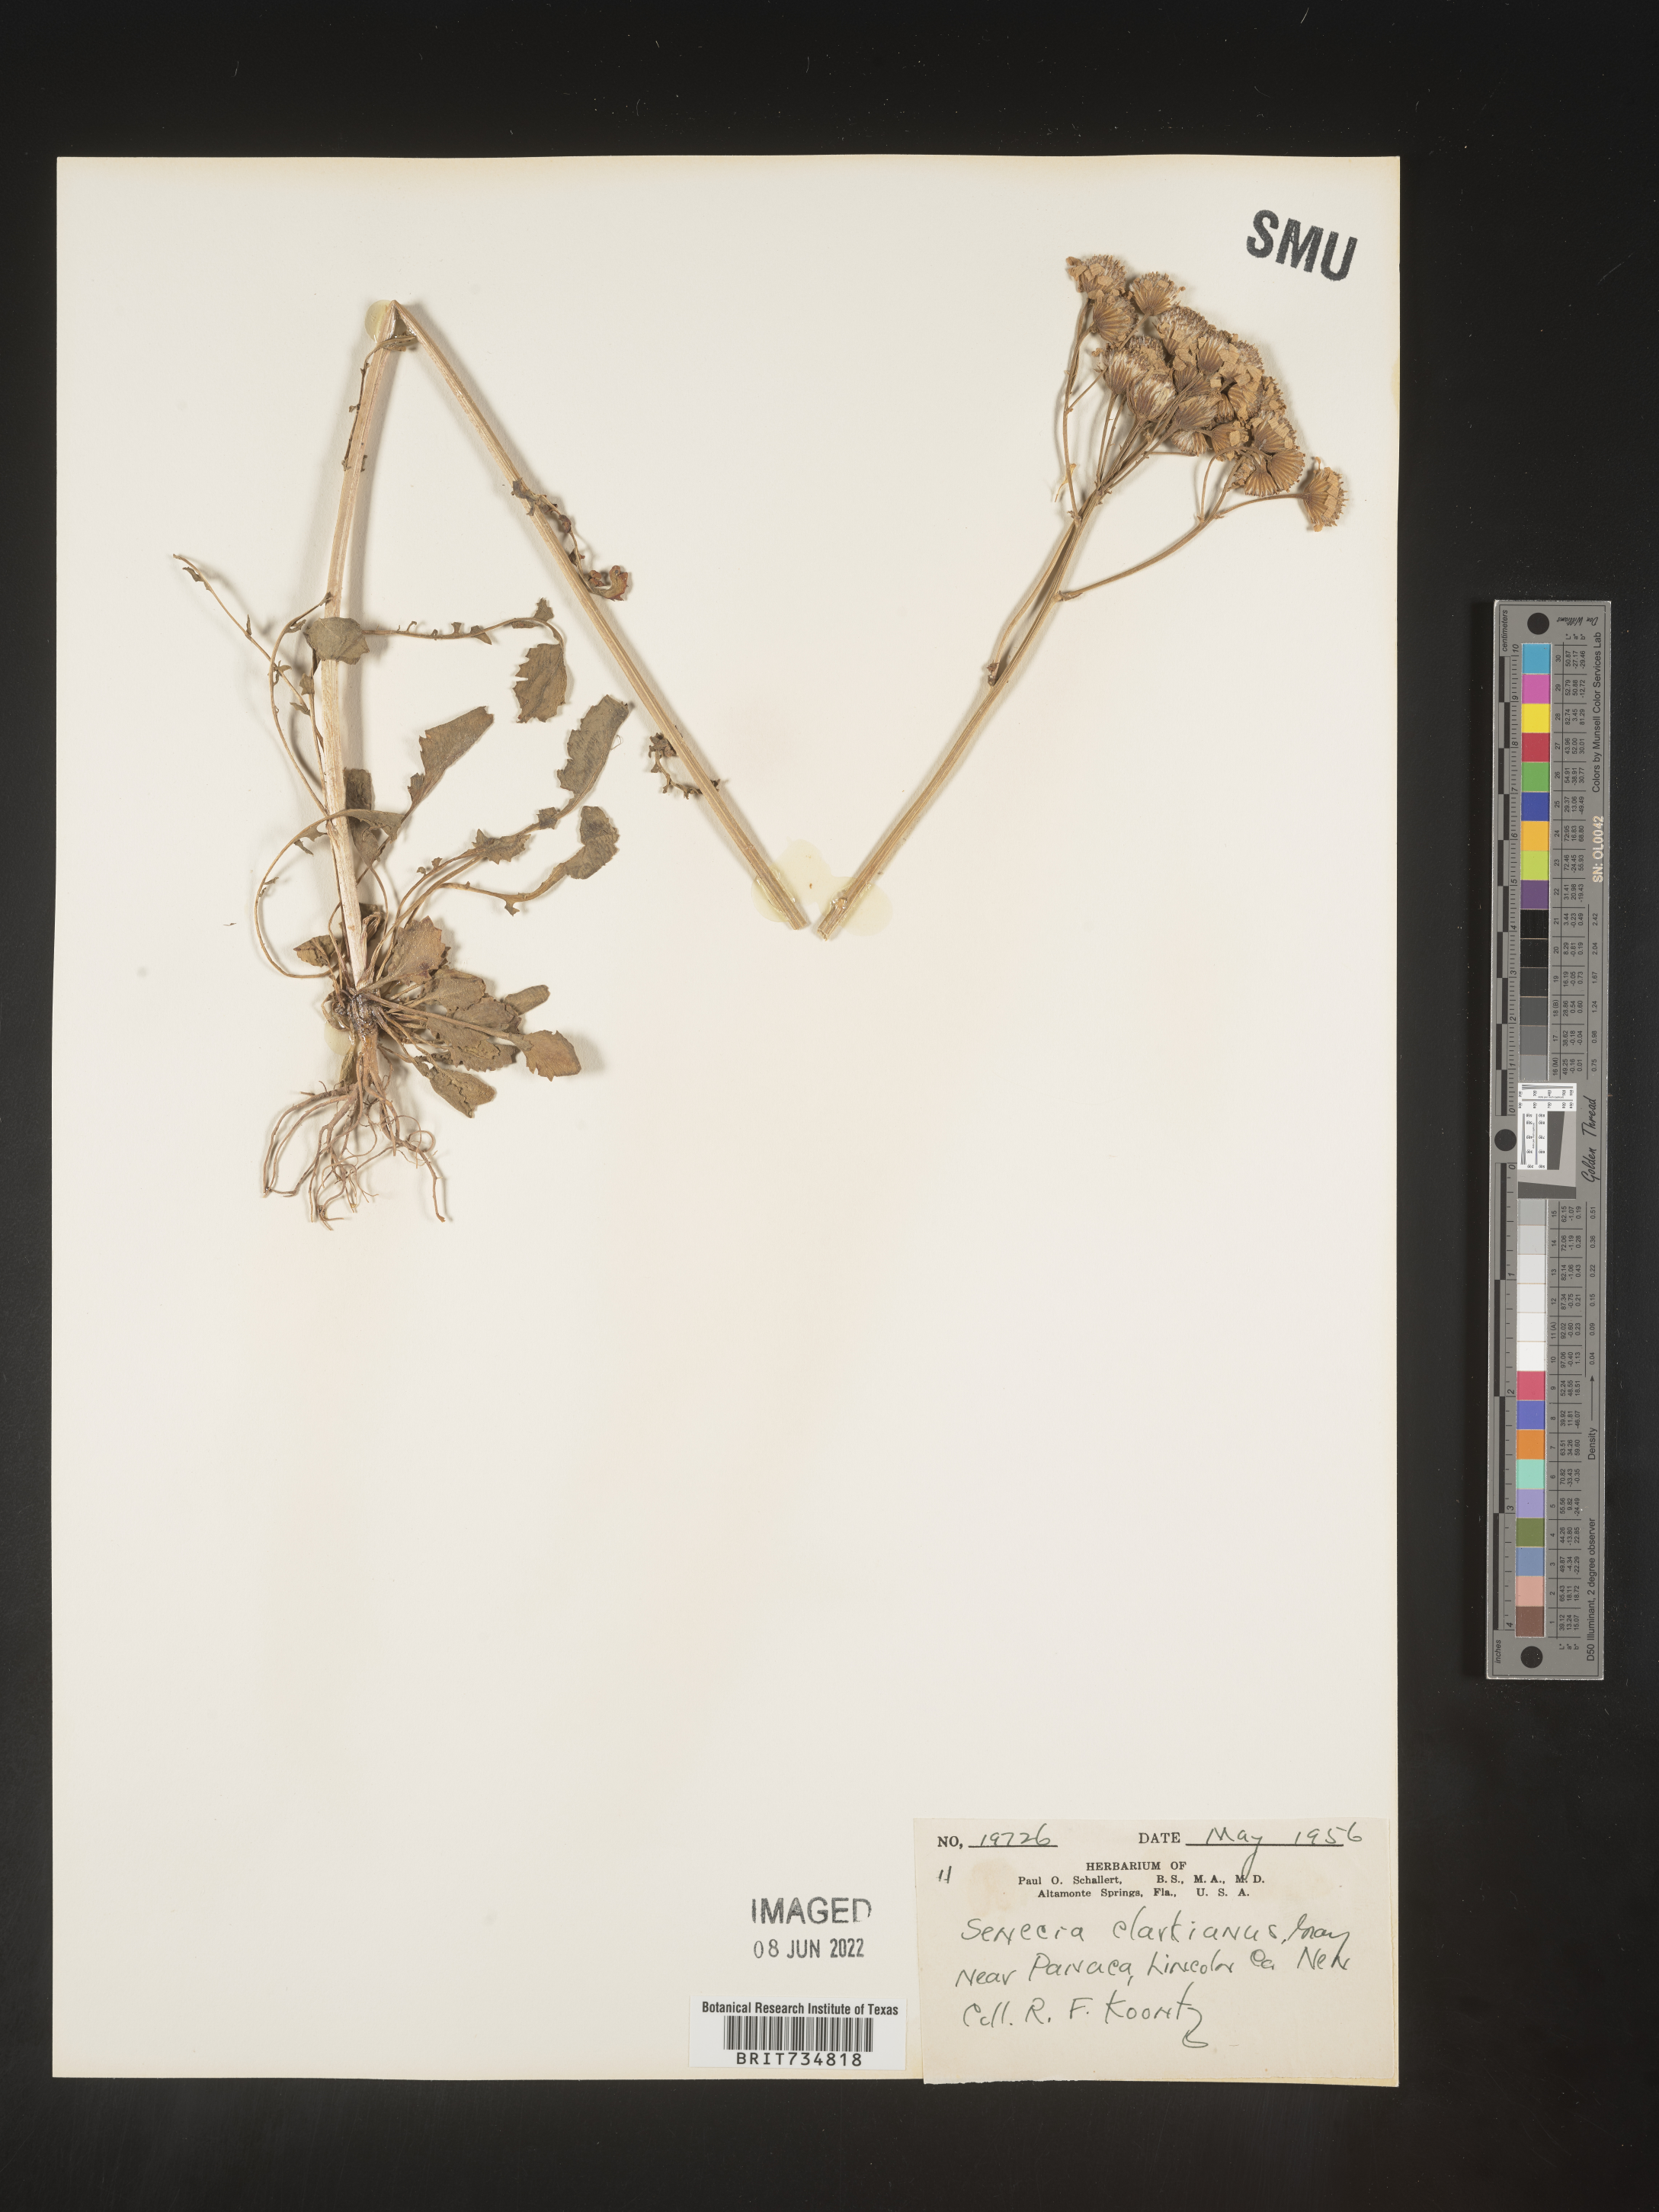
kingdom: Plantae
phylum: Tracheophyta
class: Magnoliopsida
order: Asterales
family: Asteraceae
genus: Packera
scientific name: Packera
